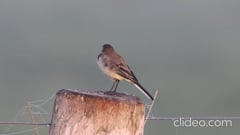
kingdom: Animalia
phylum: Chordata
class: Aves
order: Passeriformes
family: Motacillidae
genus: Motacilla
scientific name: Motacilla flava
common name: Western yellow wagtail
